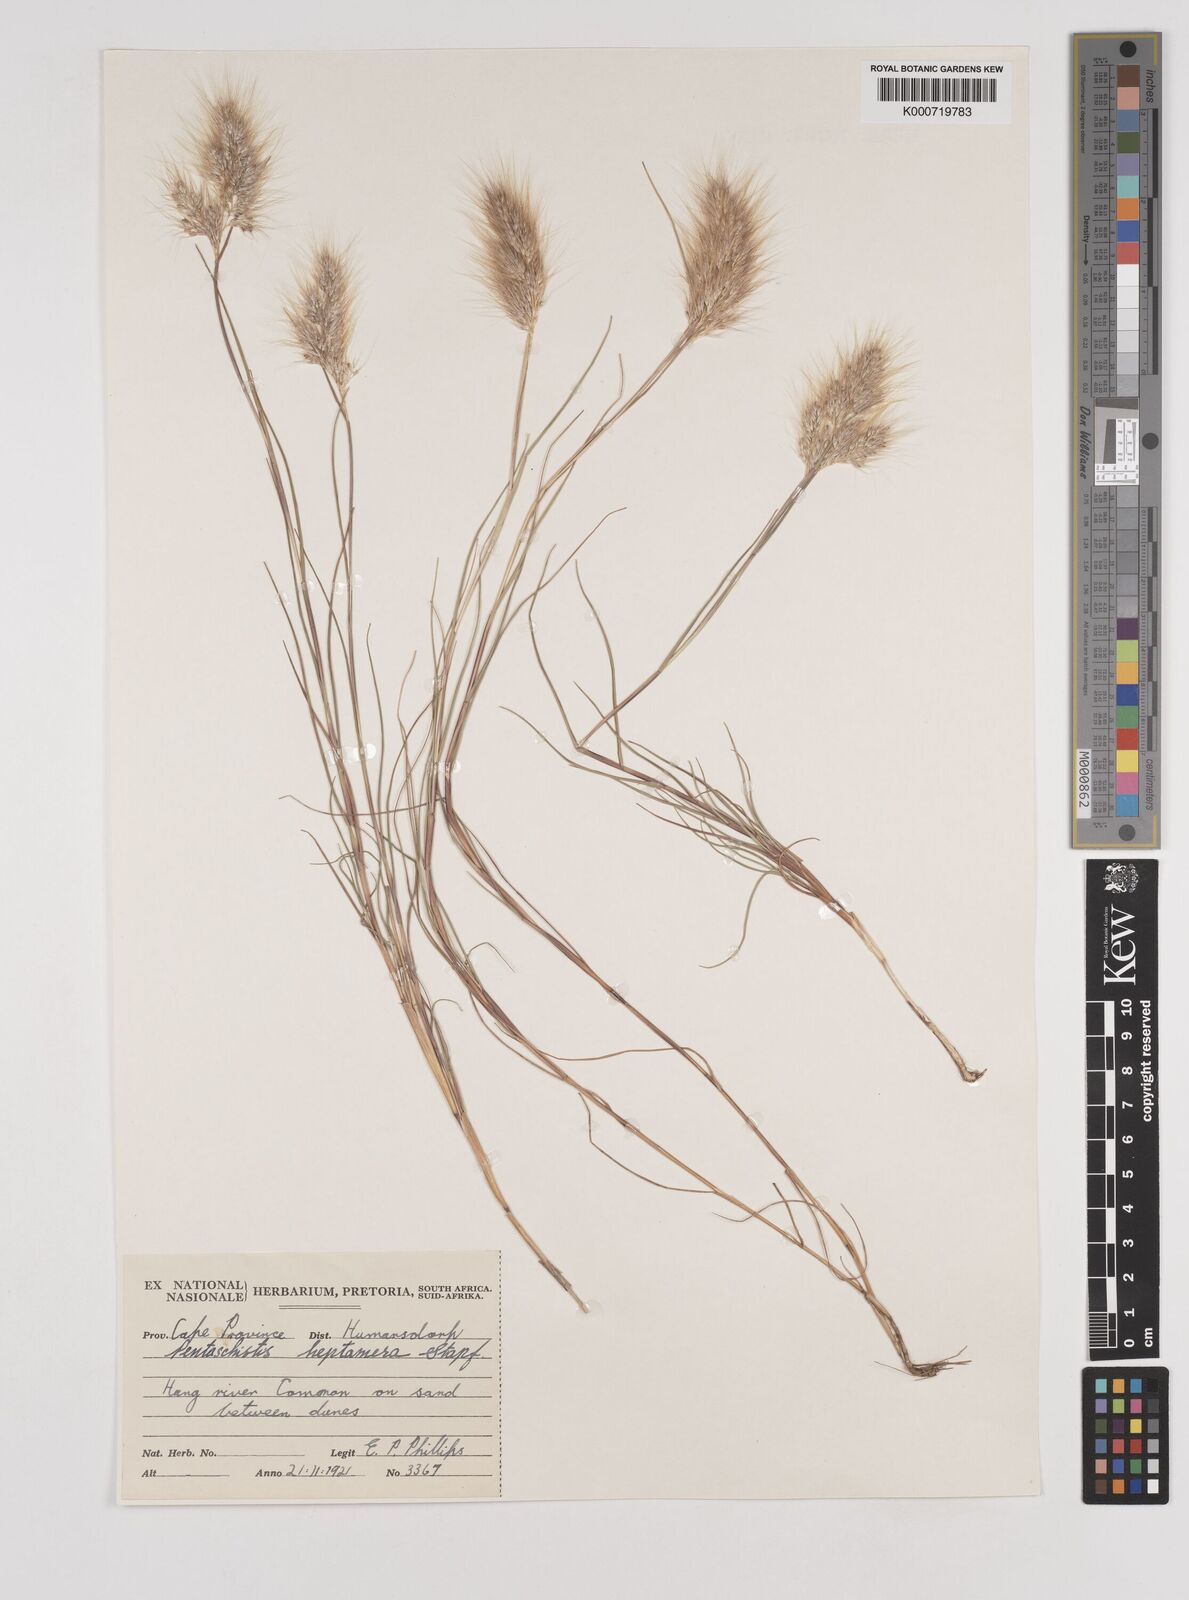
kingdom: Plantae
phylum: Tracheophyta
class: Liliopsida
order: Poales
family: Poaceae
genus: Pentameris
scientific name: Pentameris heptamera
